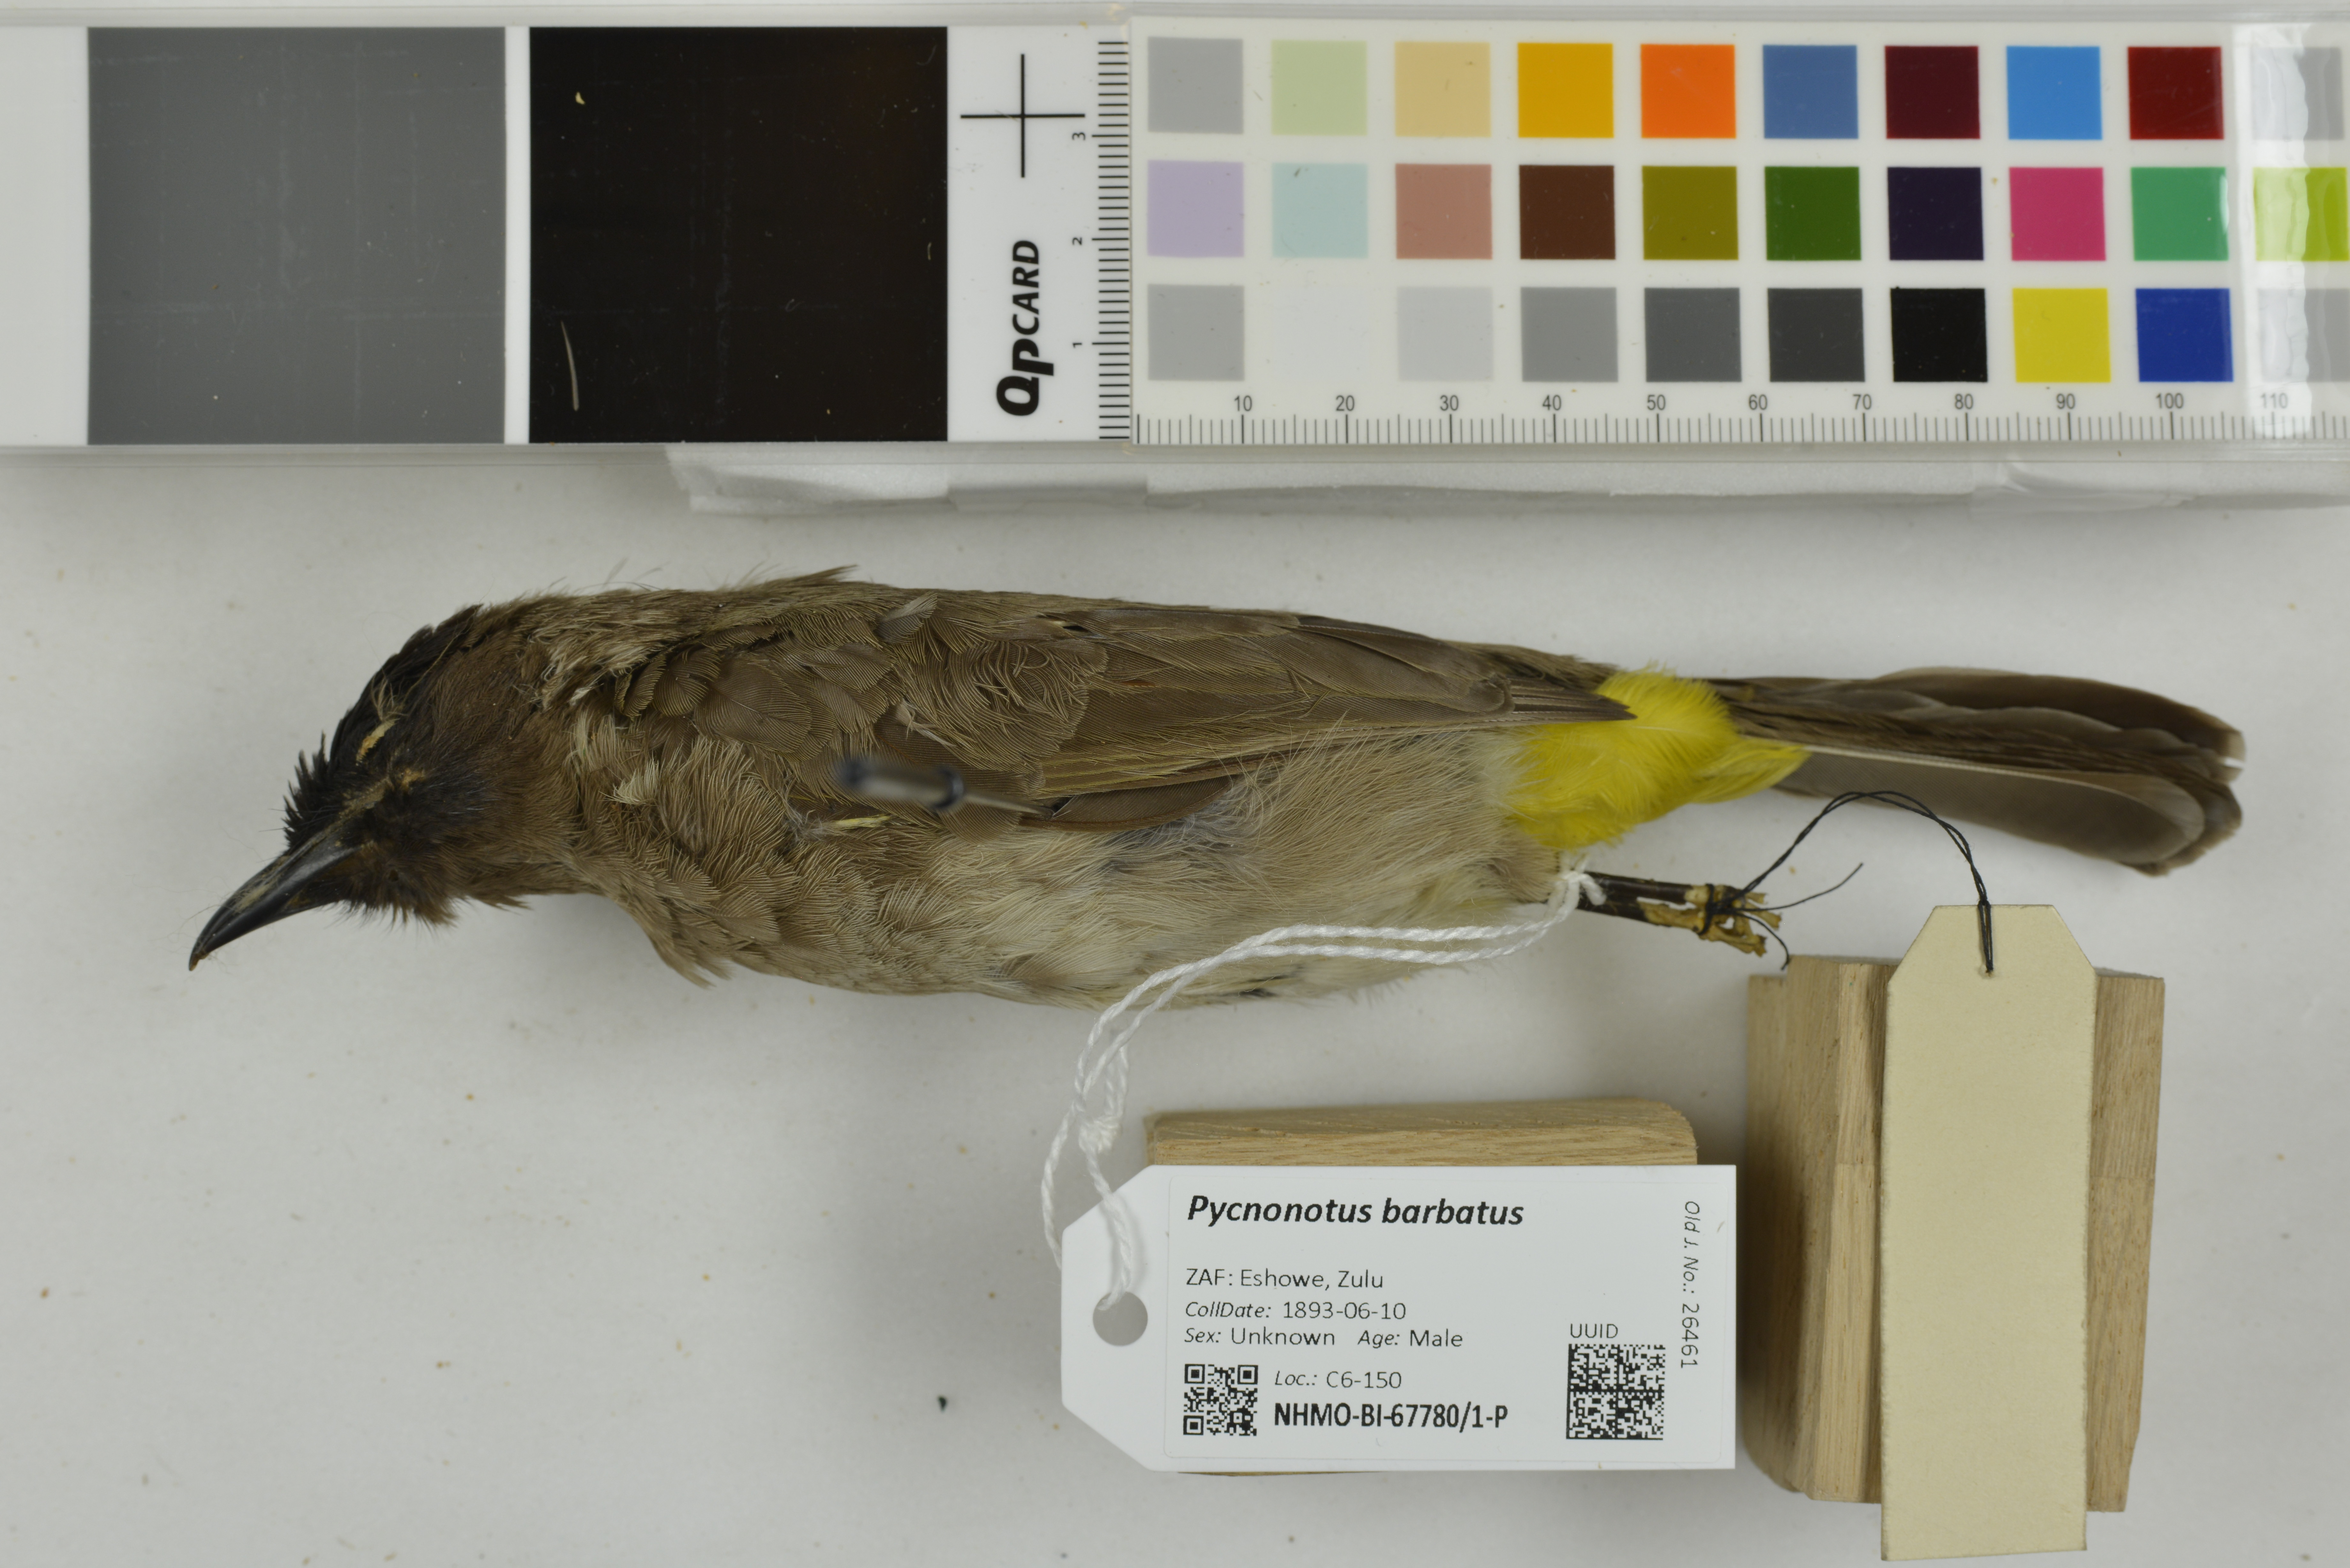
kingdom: Animalia
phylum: Chordata
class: Aves
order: Passeriformes
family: Pycnonotidae
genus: Pycnonotus
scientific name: Pycnonotus barbatus
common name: Common bulbul
